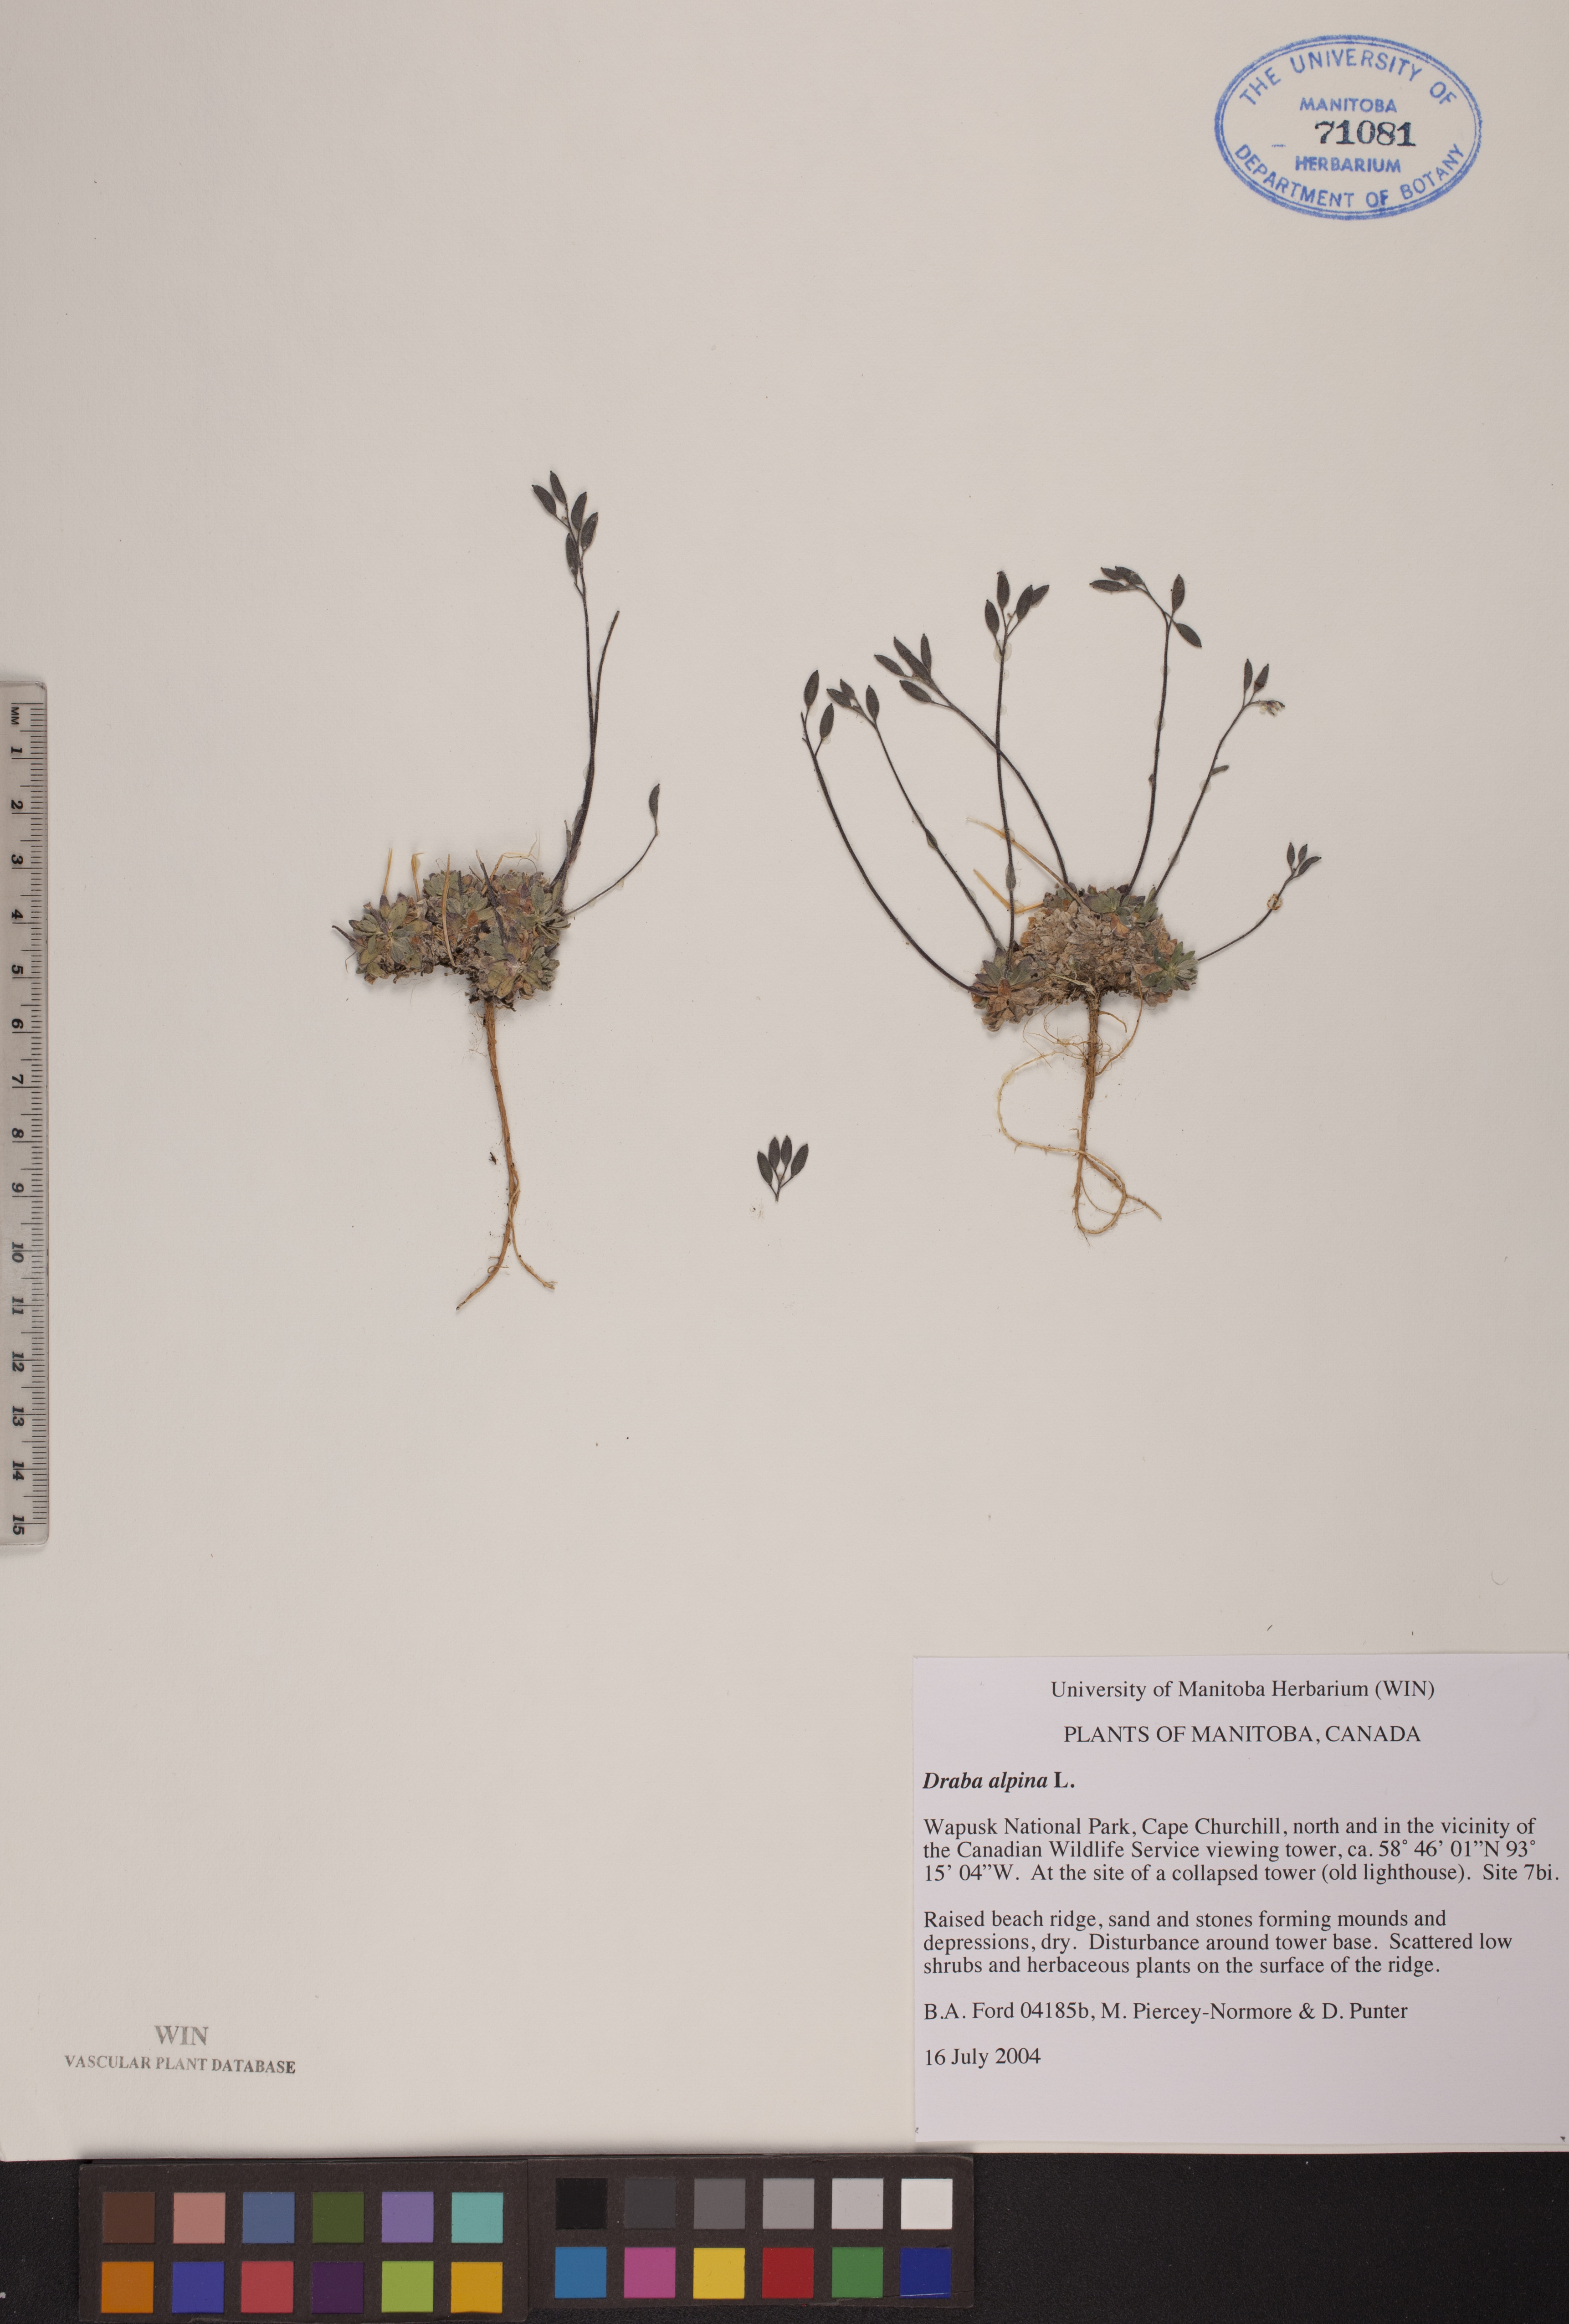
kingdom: Plantae
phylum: Tracheophyta
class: Magnoliopsida
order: Brassicales
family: Brassicaceae
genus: Draba
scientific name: Draba alpina
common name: Alpine draba
